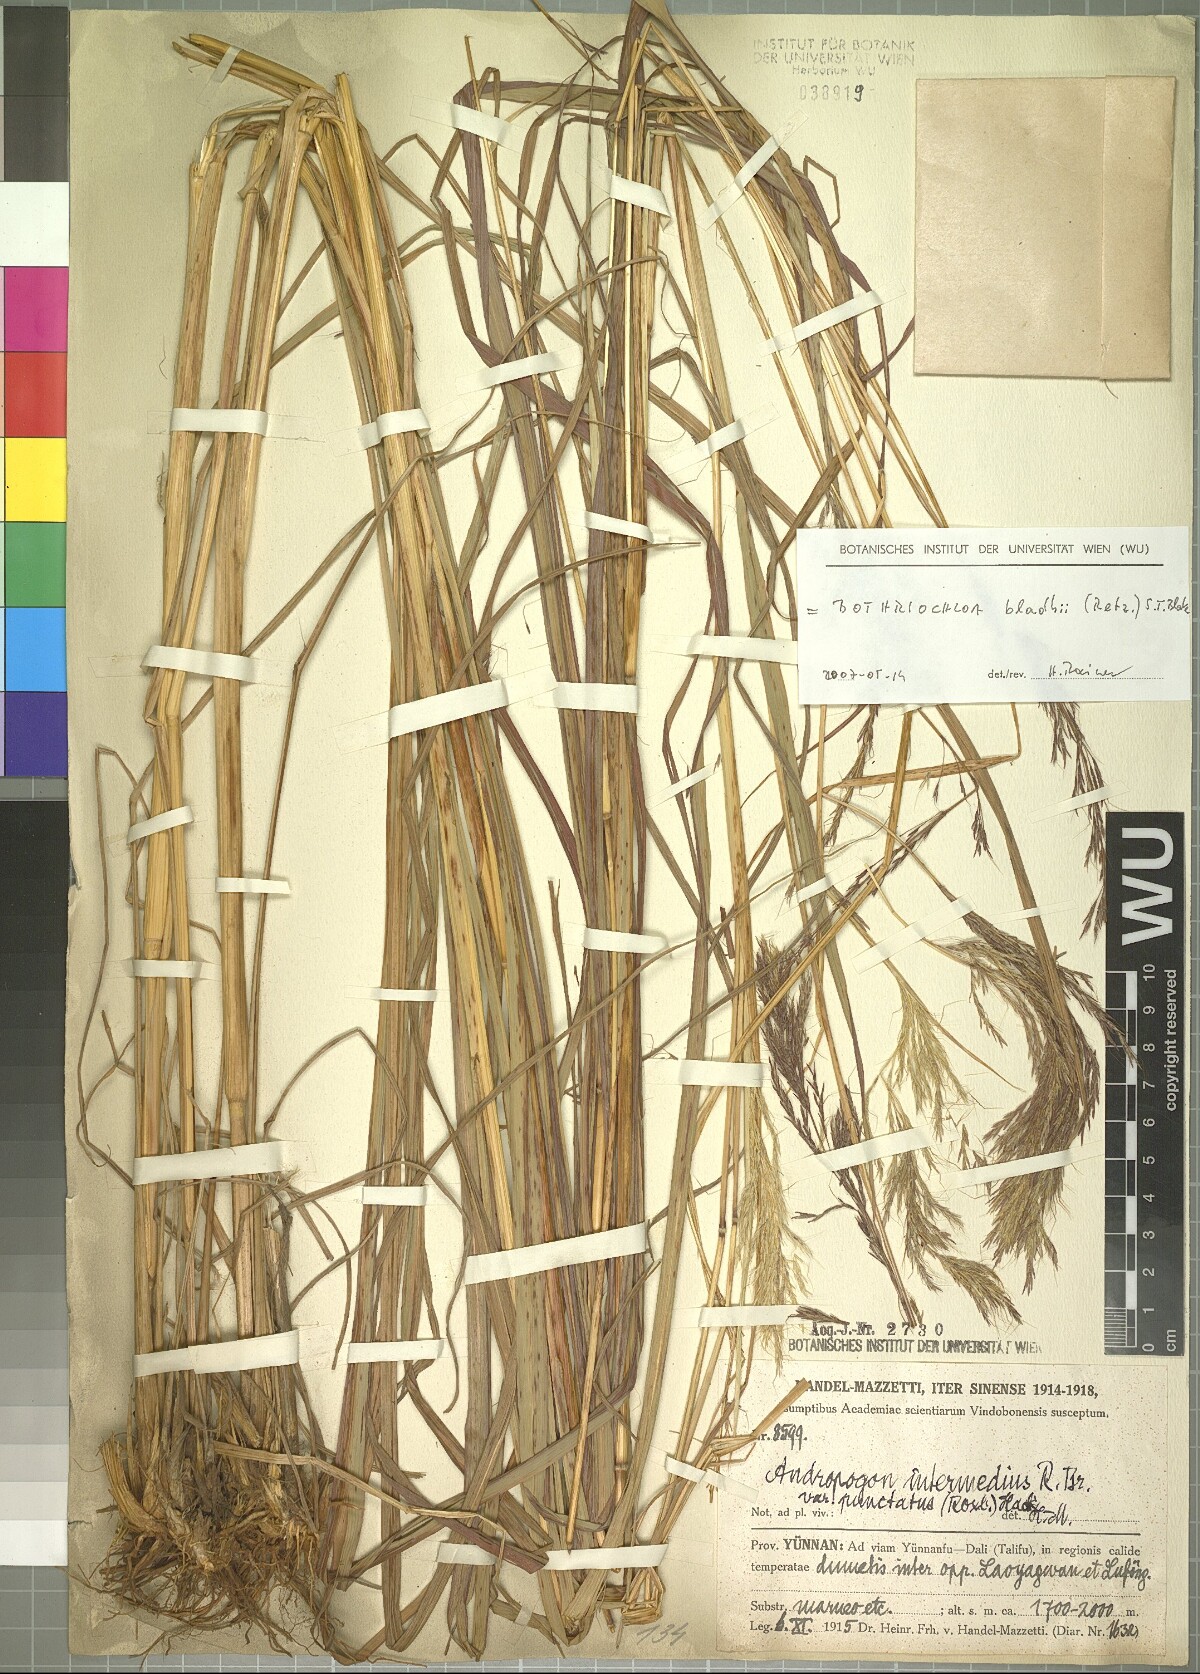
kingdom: Plantae
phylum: Tracheophyta
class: Liliopsida
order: Poales
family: Poaceae
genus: Bothriochloa
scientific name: Bothriochloa bladhii
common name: Caucasian bluestem
